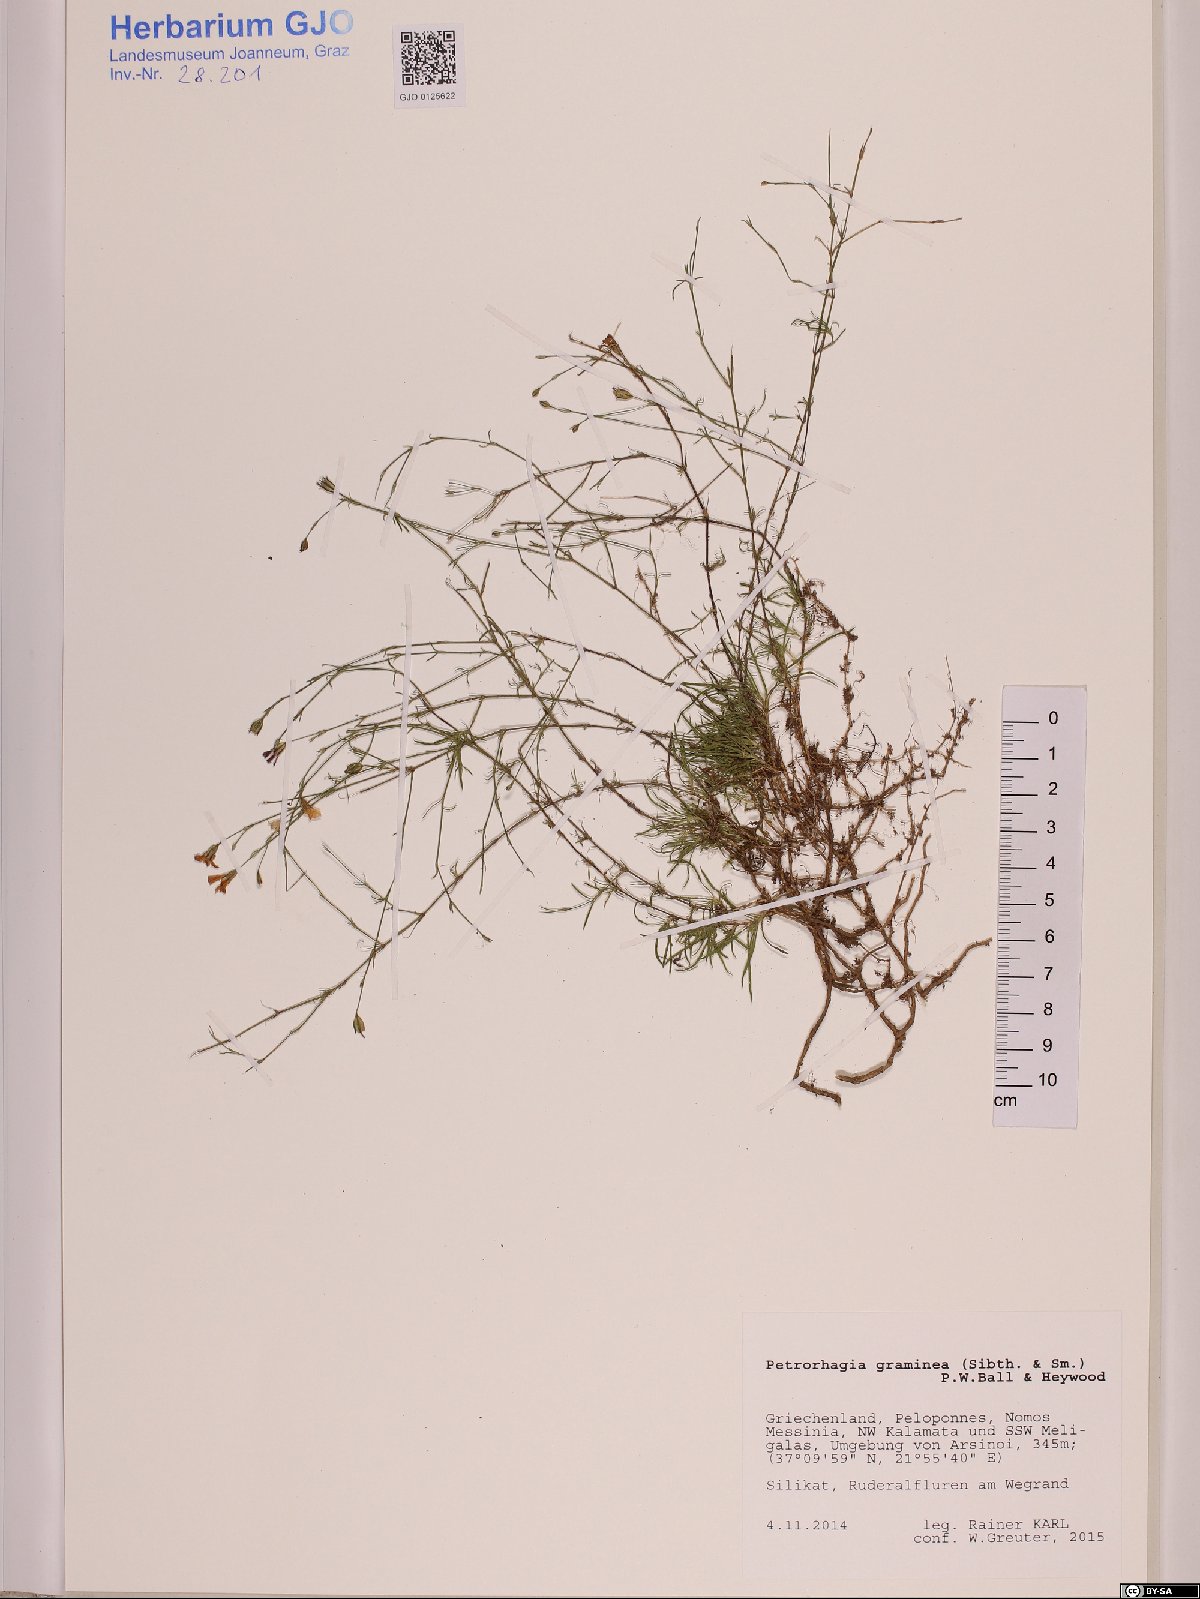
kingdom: Plantae
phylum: Tracheophyta
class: Magnoliopsida
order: Caryophyllales
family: Caryophyllaceae
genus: Petrorhagia
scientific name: Petrorhagia graminea
